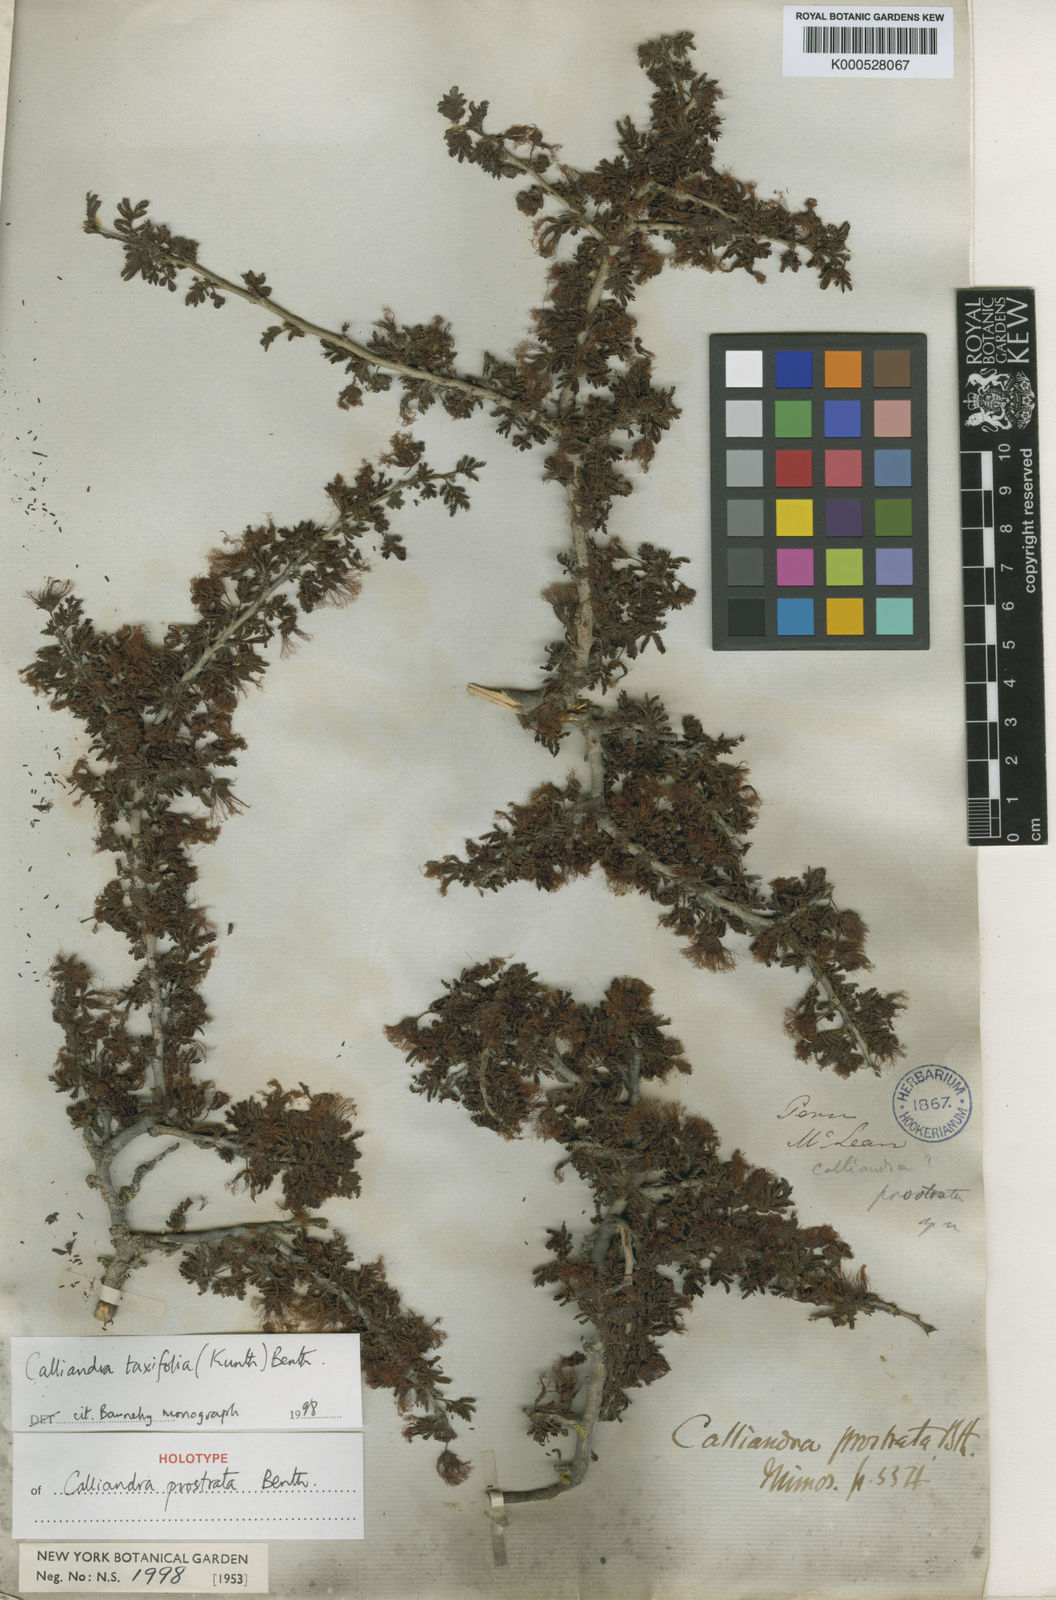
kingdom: Plantae
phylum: Tracheophyta
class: Magnoliopsida
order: Fabales
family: Fabaceae
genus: Calliandra
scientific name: Calliandra taxifolia
